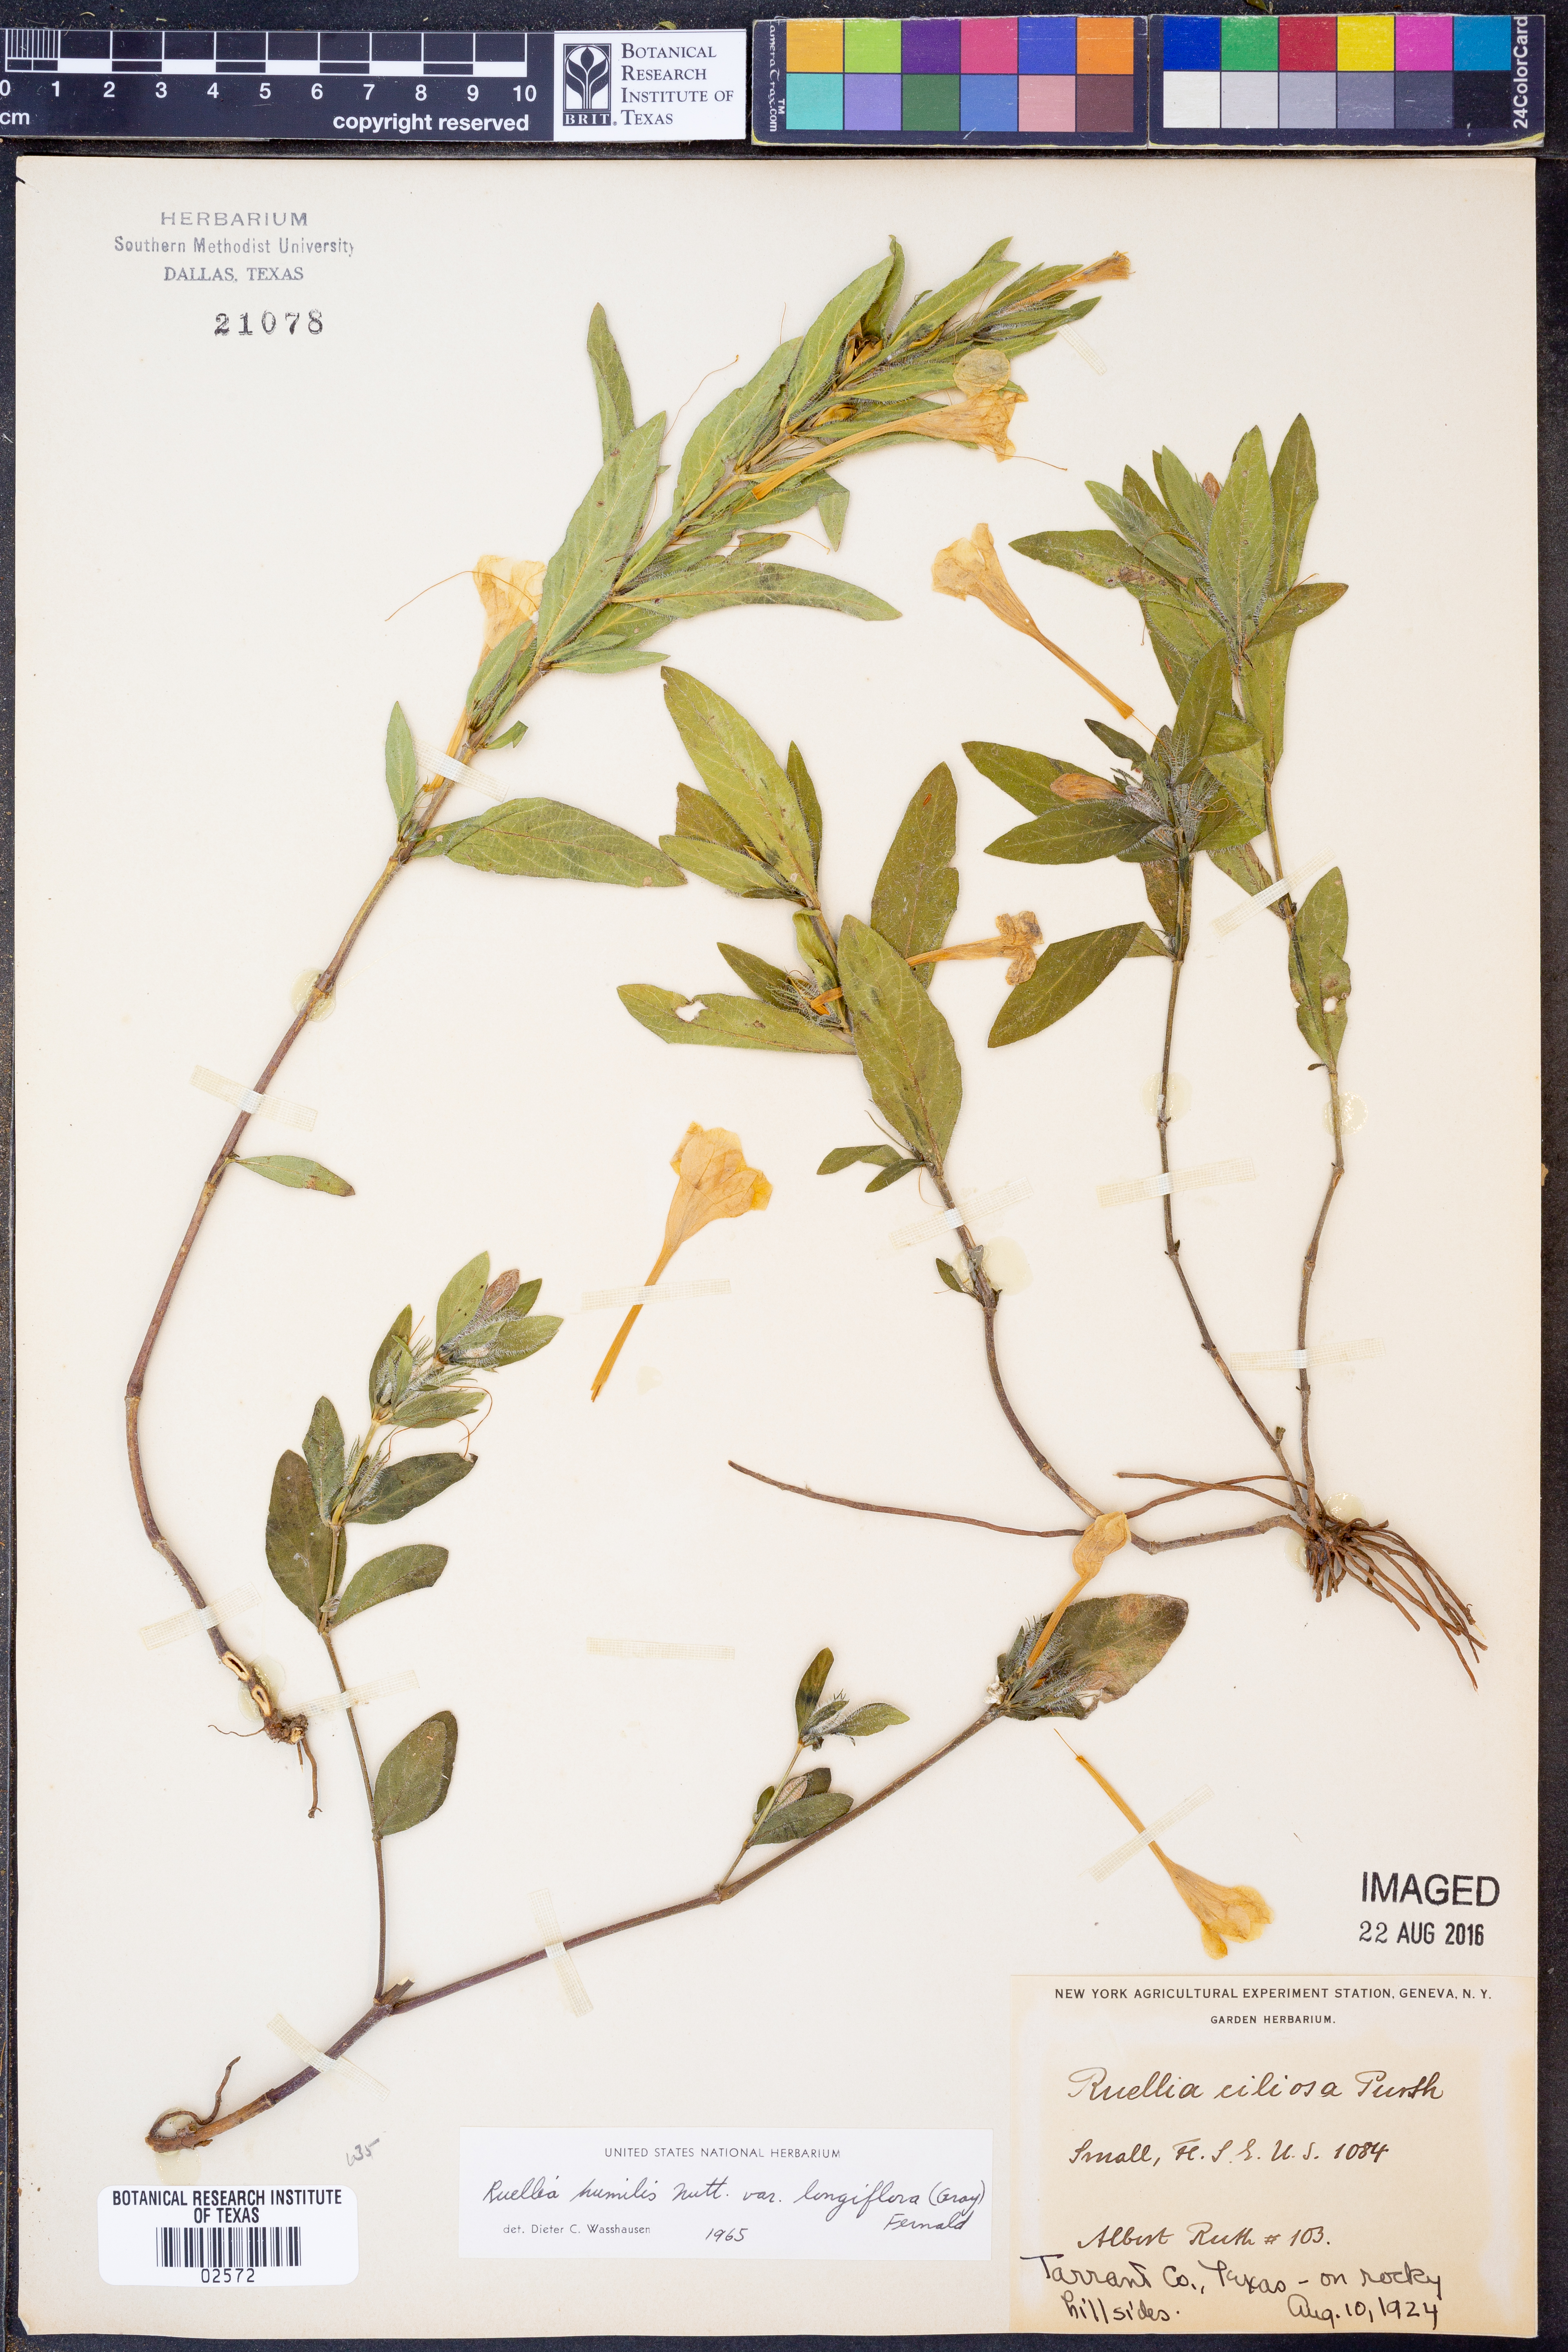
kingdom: Plantae
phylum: Tracheophyta
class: Magnoliopsida
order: Lamiales
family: Acanthaceae
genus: Ruellia
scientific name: Ruellia humilis
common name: Fringe-leaf ruellia
